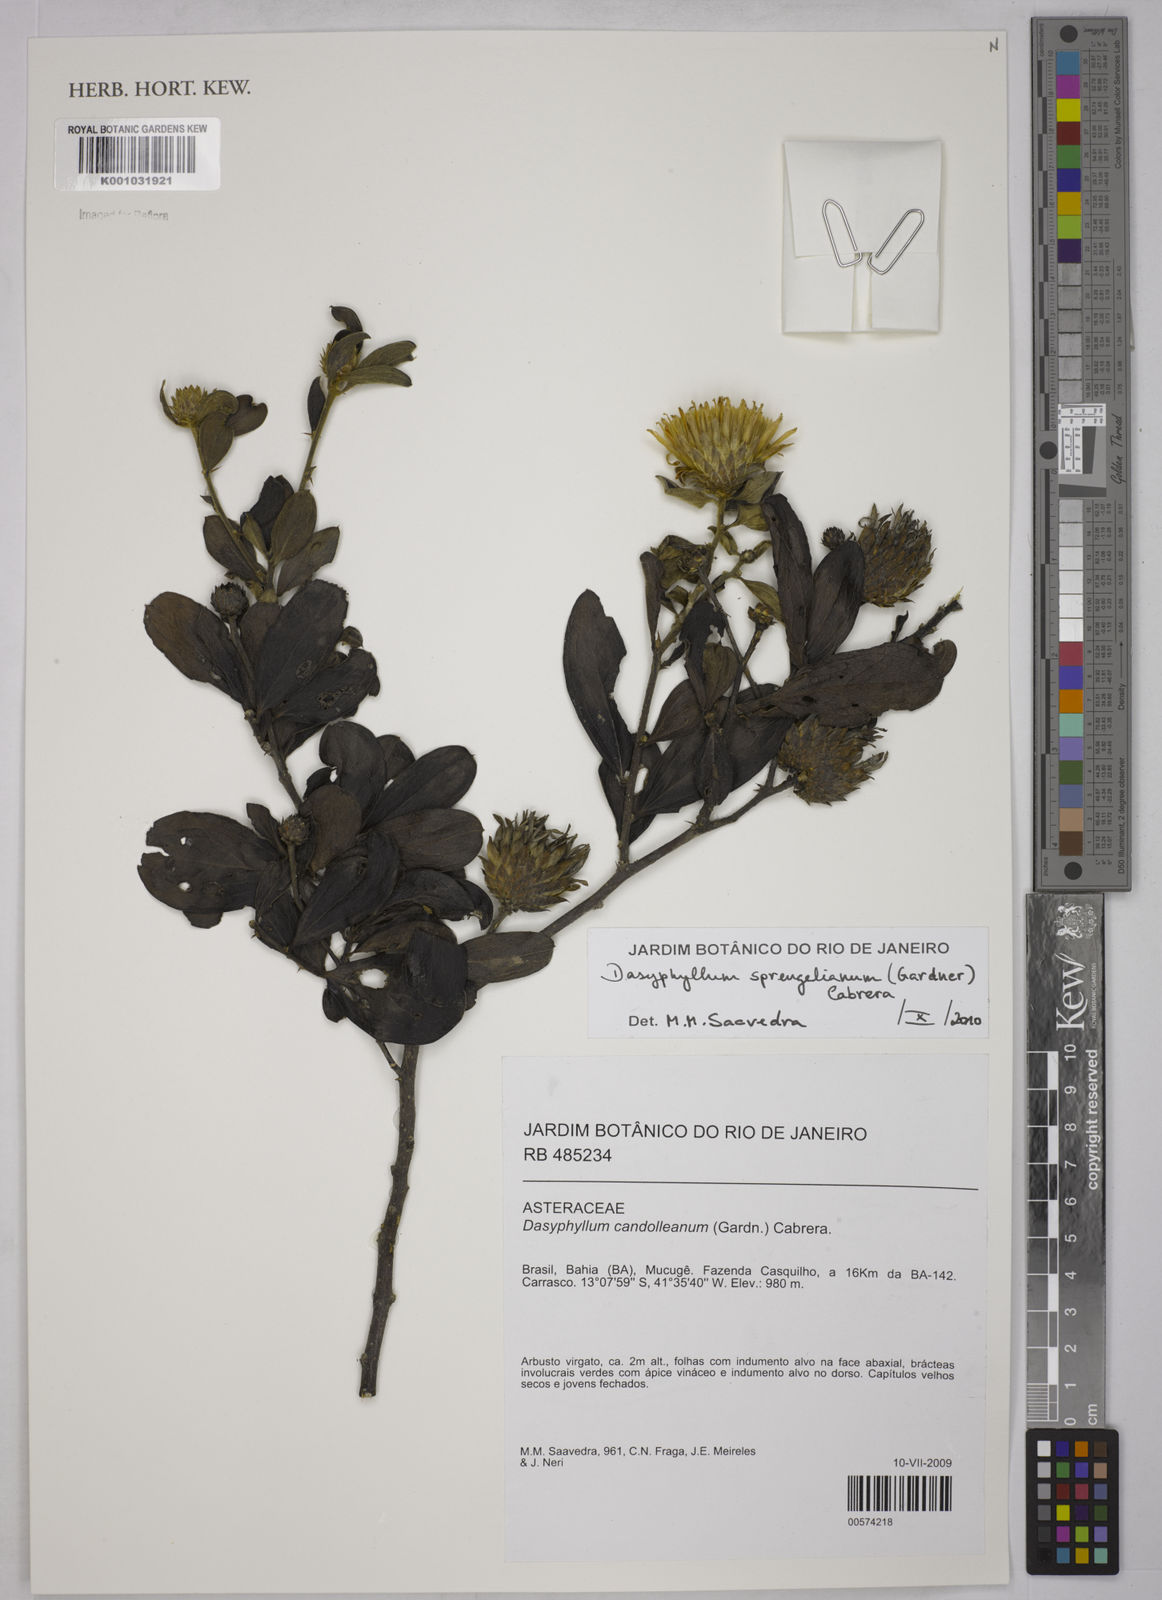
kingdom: Plantae
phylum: Tracheophyta
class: Magnoliopsida
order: Asterales
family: Asteraceae
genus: Dasyphyllum
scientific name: Dasyphyllum sprengelianum
